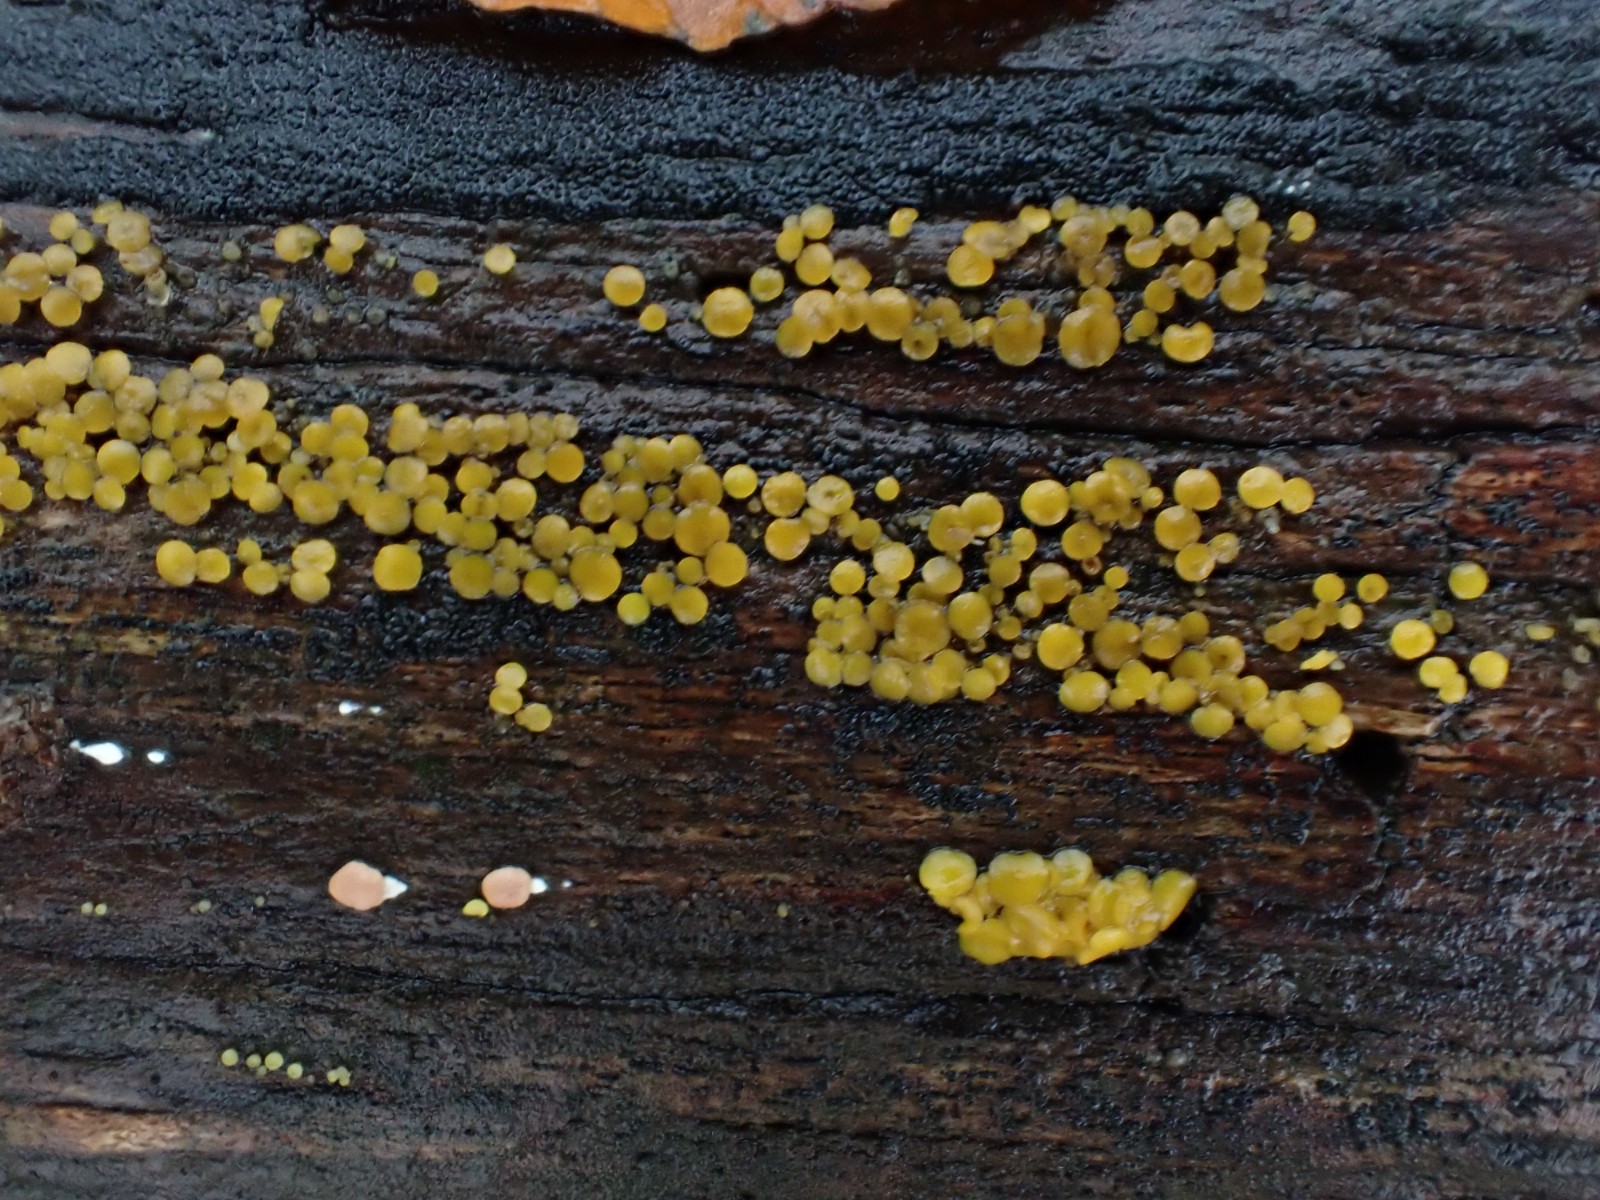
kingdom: Fungi
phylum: Ascomycota
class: Leotiomycetes
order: Helotiales
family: Pezizellaceae
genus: Calycina
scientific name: Calycina citrina
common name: almindelig gulskive
